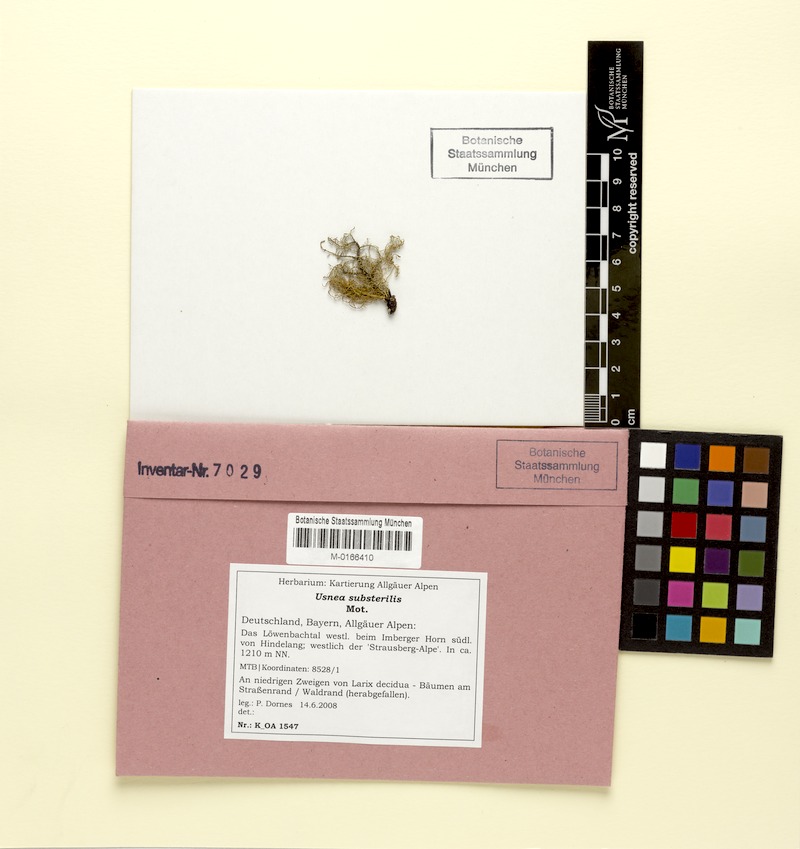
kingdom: Fungi
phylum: Ascomycota
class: Lecanoromycetes
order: Lecanorales
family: Parmeliaceae
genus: Usnea
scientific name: Usnea substerilis
